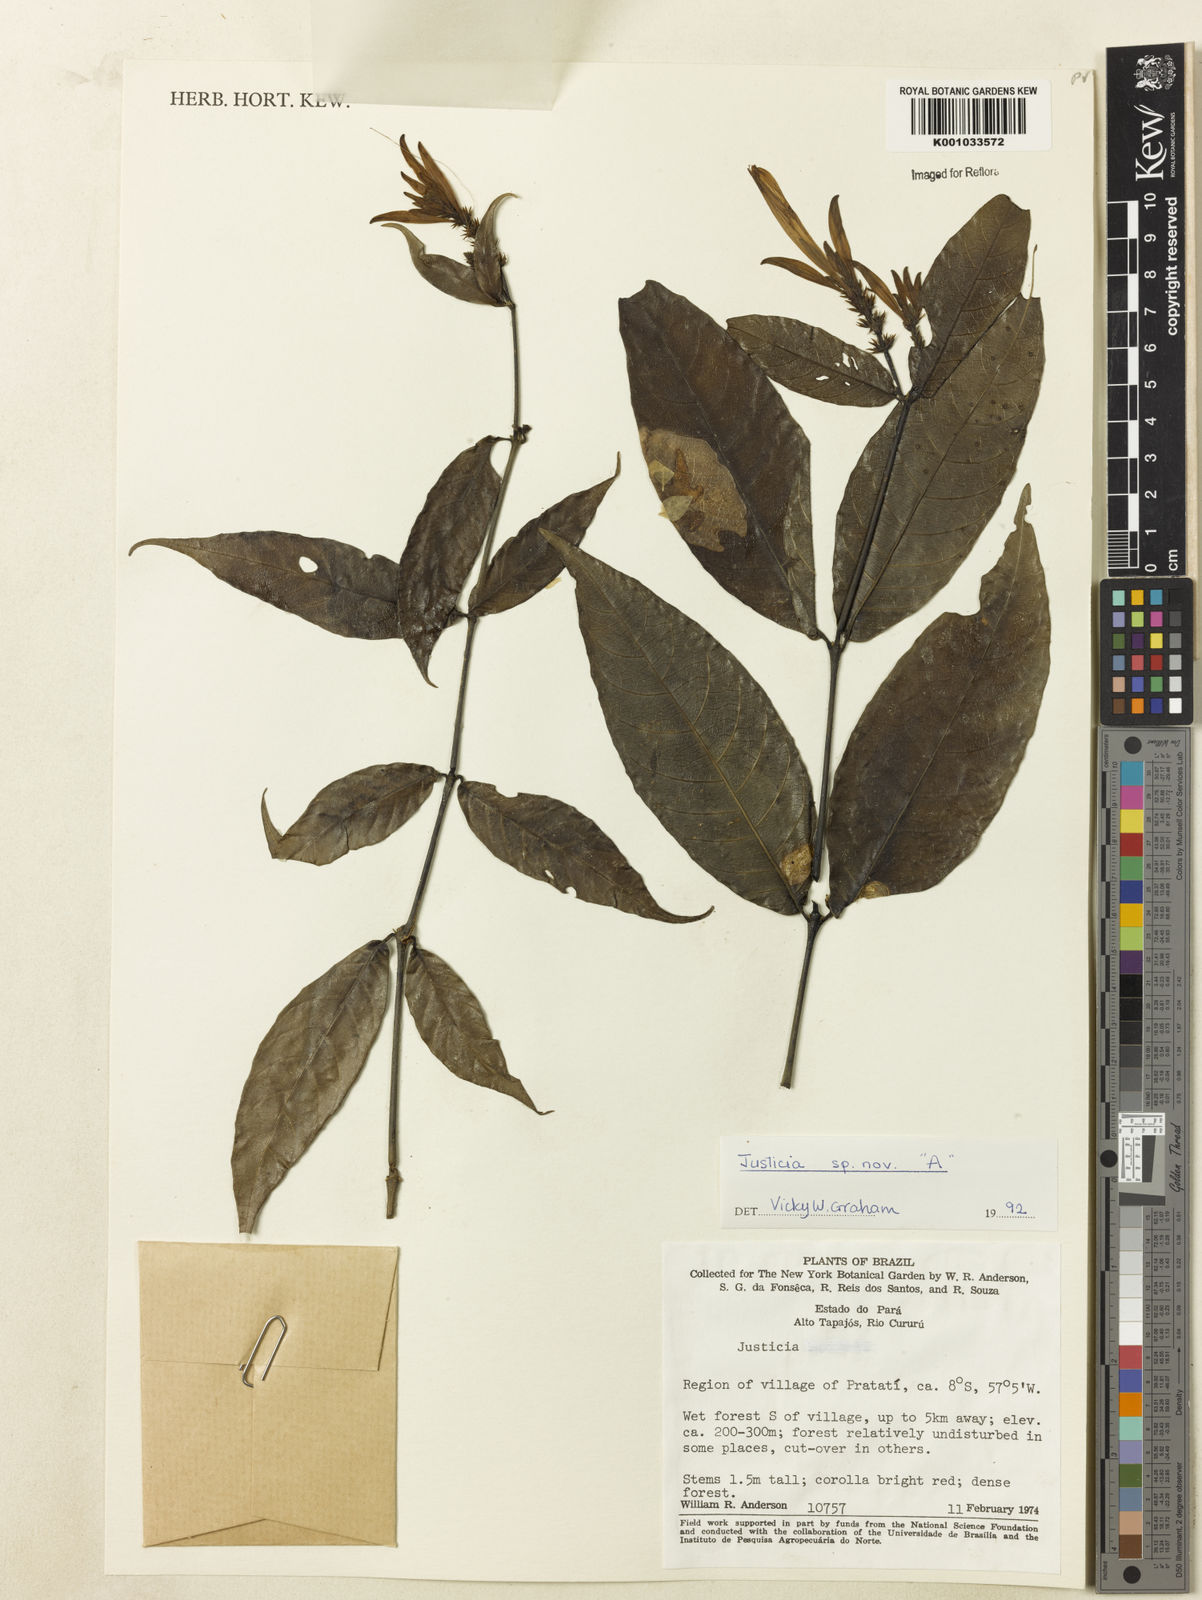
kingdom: Plantae
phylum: Tracheophyta
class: Magnoliopsida
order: Lamiales
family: Acanthaceae
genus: Justicia
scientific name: Justicia
